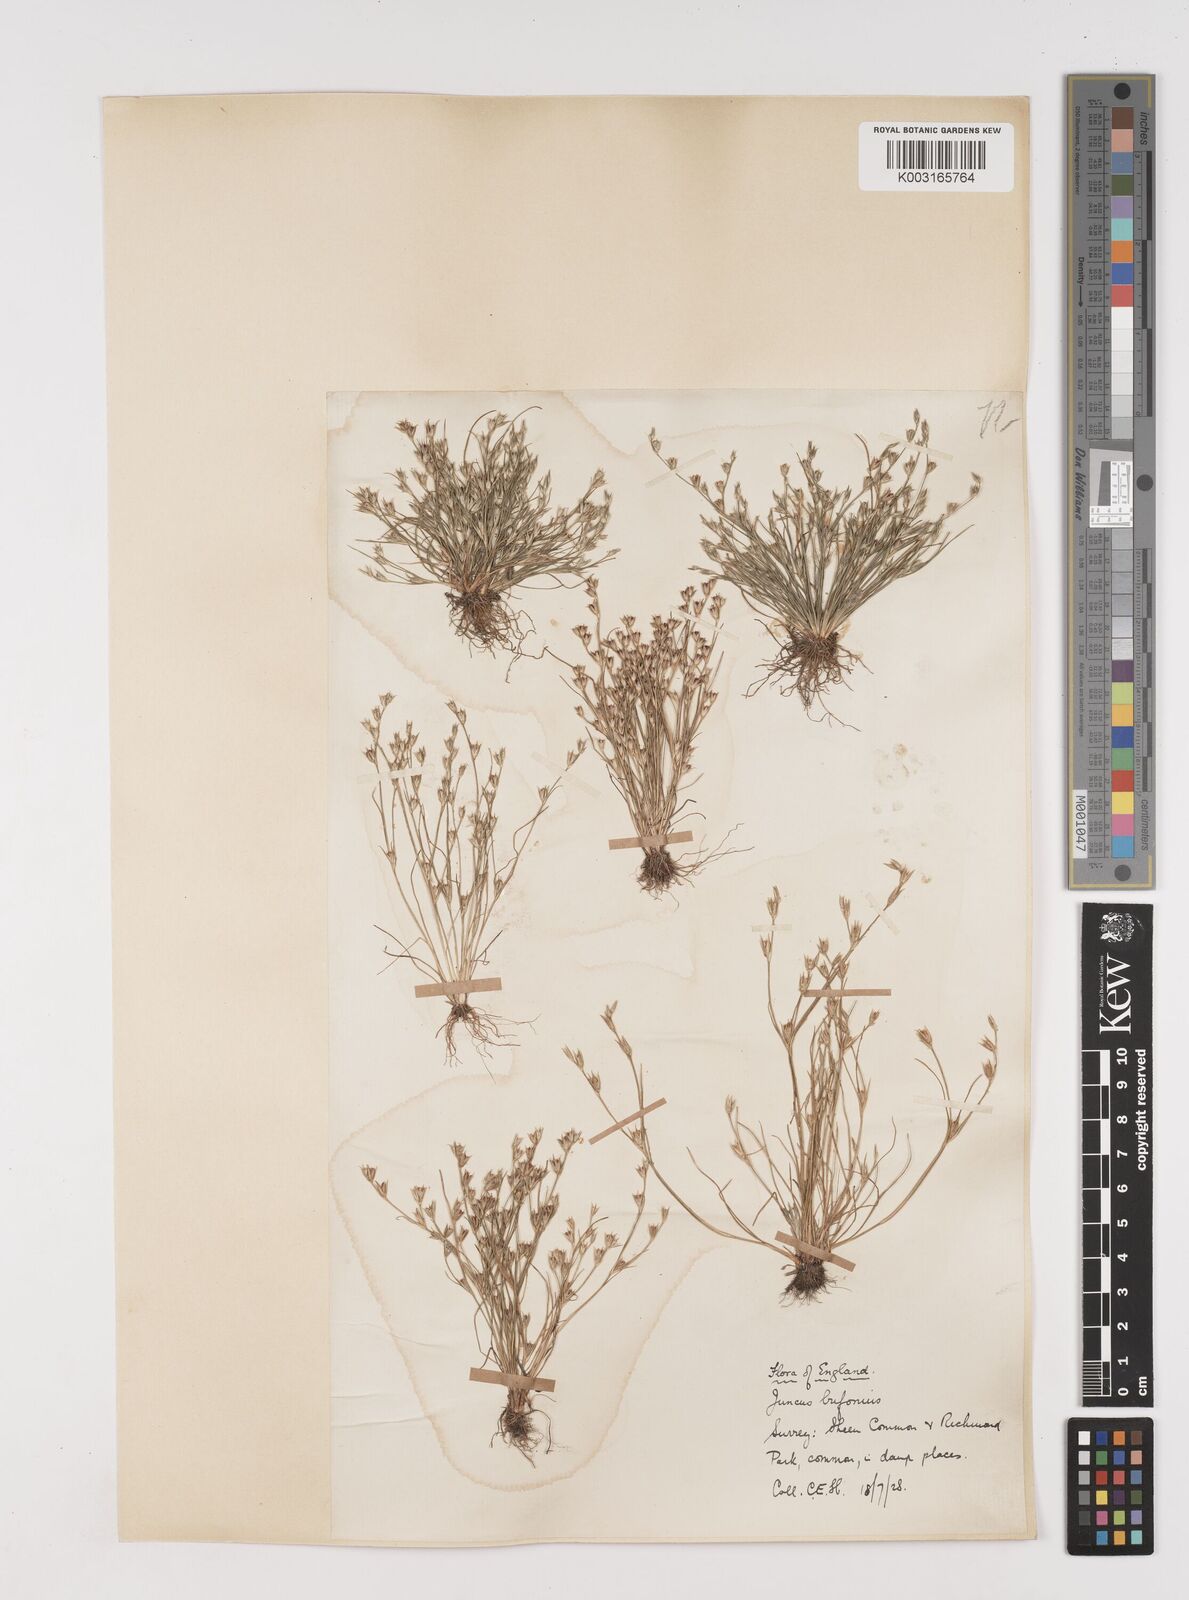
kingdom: Plantae
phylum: Tracheophyta
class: Liliopsida
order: Poales
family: Juncaceae
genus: Juncus
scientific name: Juncus bufonius
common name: Toad rush
